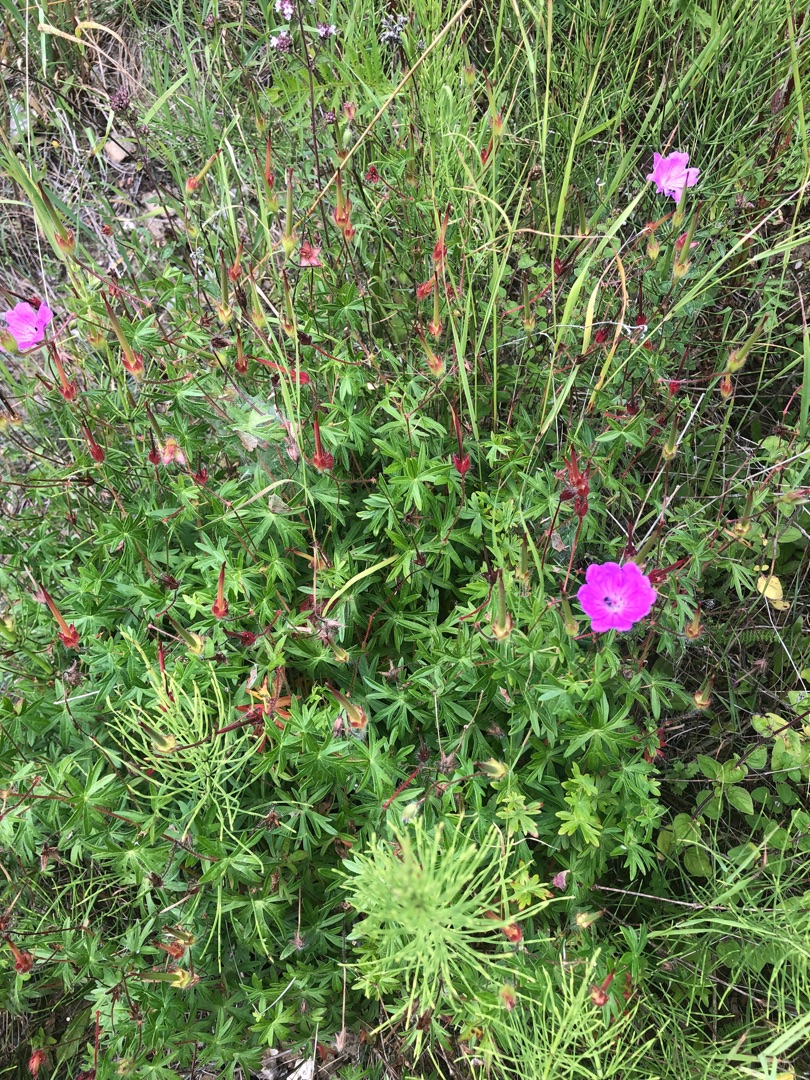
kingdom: Plantae
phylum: Tracheophyta
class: Magnoliopsida
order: Geraniales
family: Geraniaceae
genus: Geranium
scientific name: Geranium sanguineum
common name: Blodrød storkenæb
